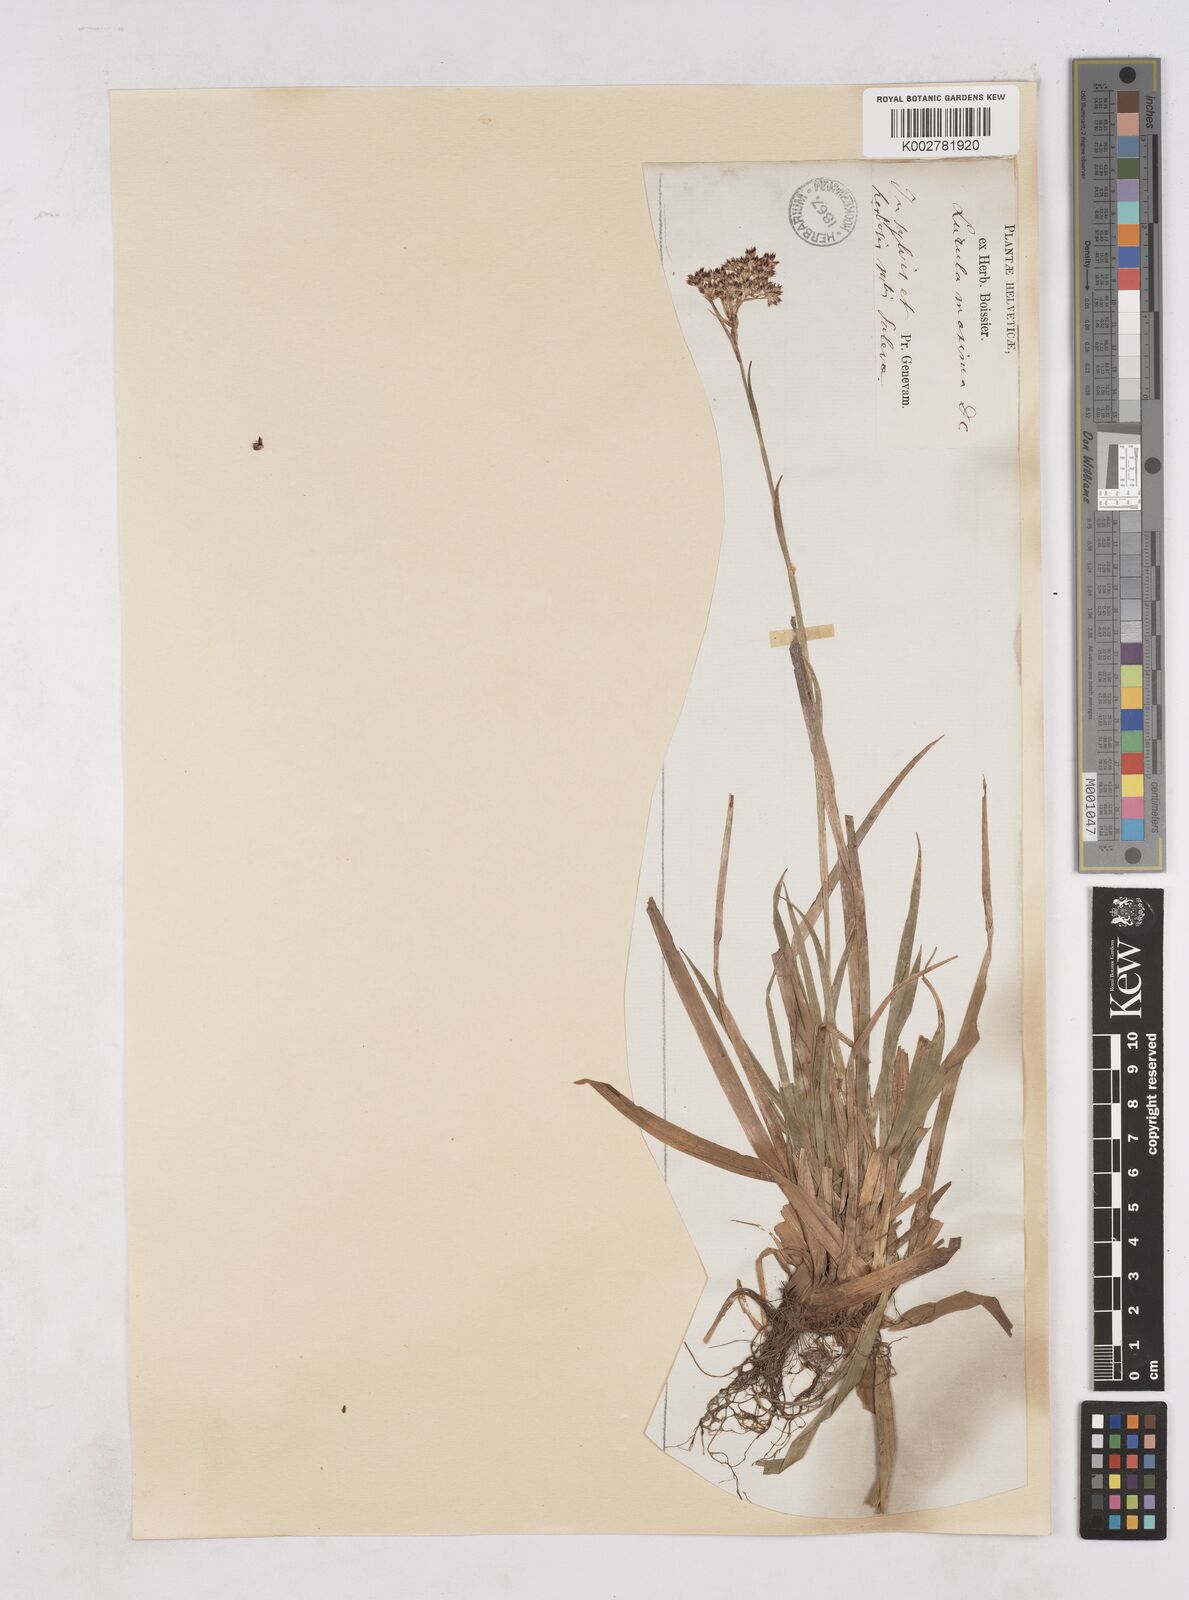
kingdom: Plantae
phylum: Tracheophyta
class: Liliopsida
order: Poales
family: Juncaceae
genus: Luzula
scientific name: Luzula sylvatica
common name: Great wood-rush
